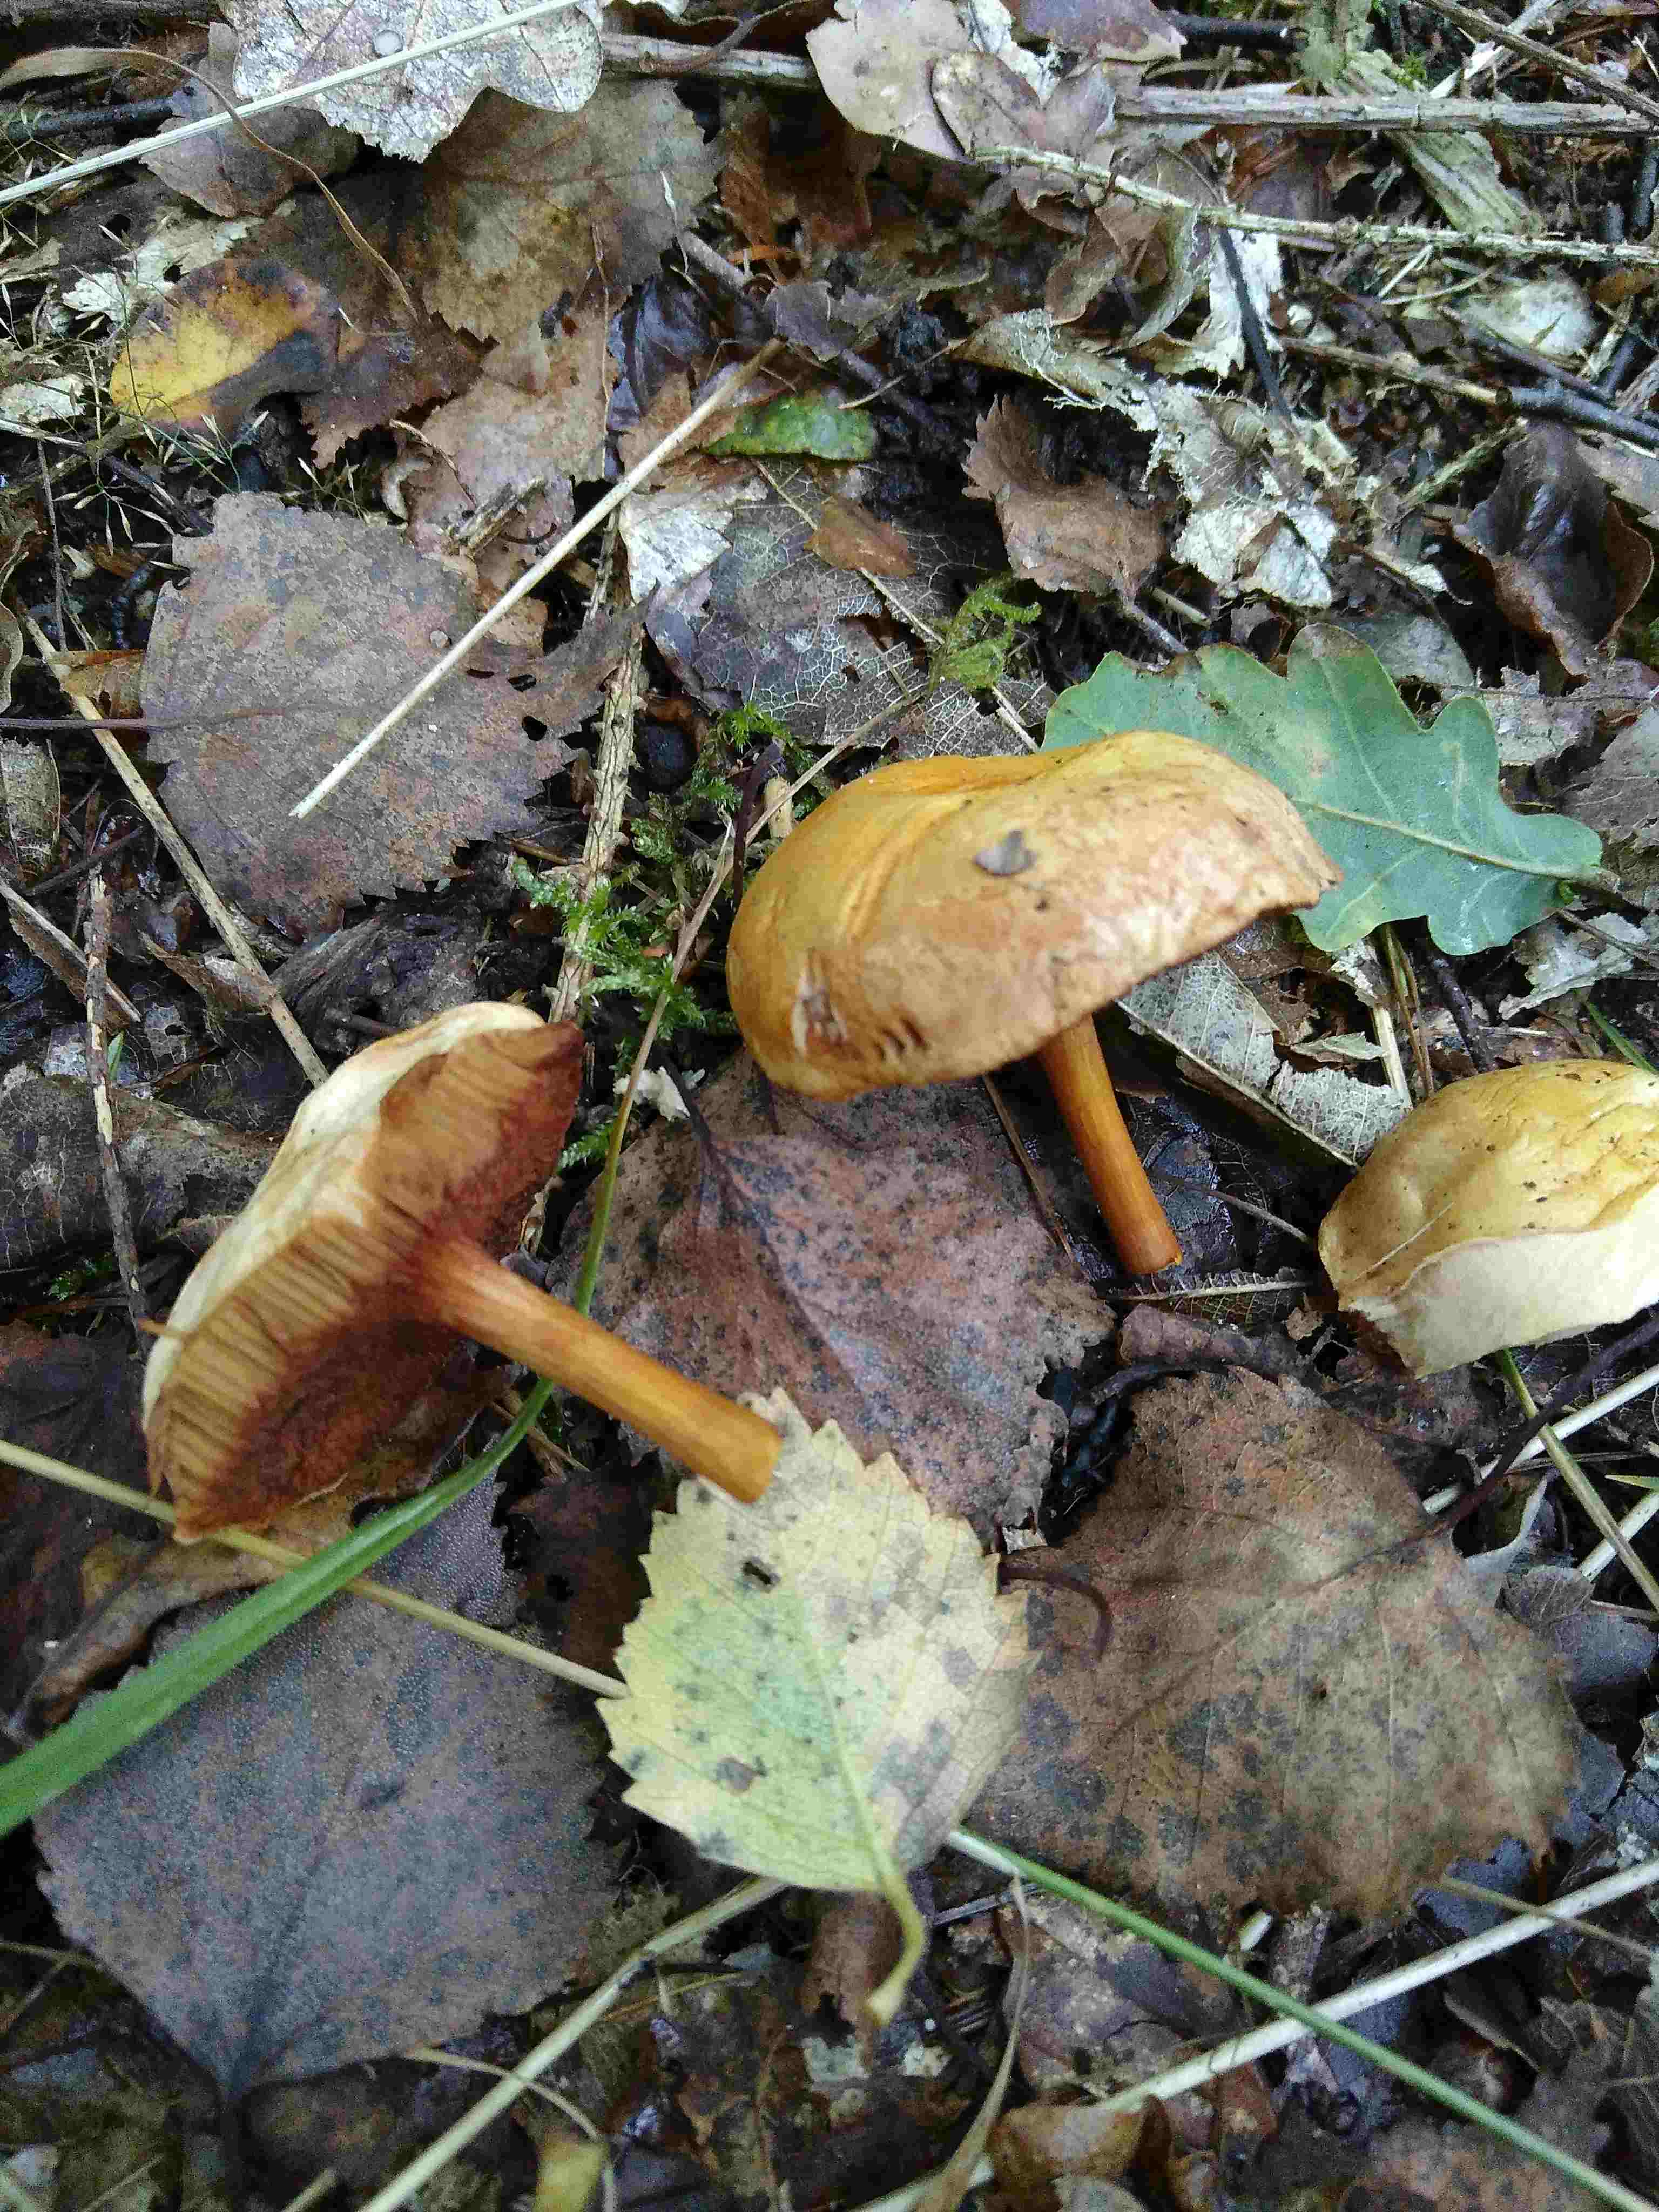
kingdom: Fungi
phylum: Basidiomycota
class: Agaricomycetes
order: Boletales
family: Boletaceae
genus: Chalciporus
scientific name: Chalciporus piperatus
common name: peberrørhat
